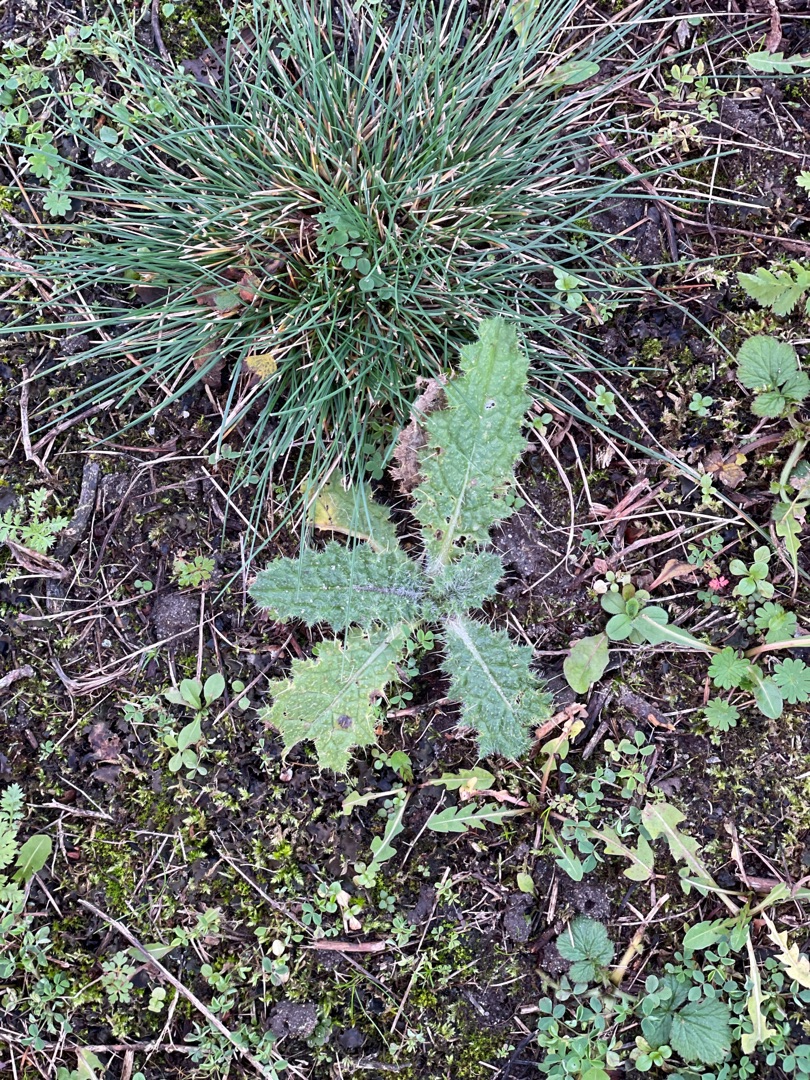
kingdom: Plantae
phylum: Tracheophyta
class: Magnoliopsida
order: Asterales
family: Asteraceae
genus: Cirsium
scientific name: Cirsium vulgare
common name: Horse-tidsel
